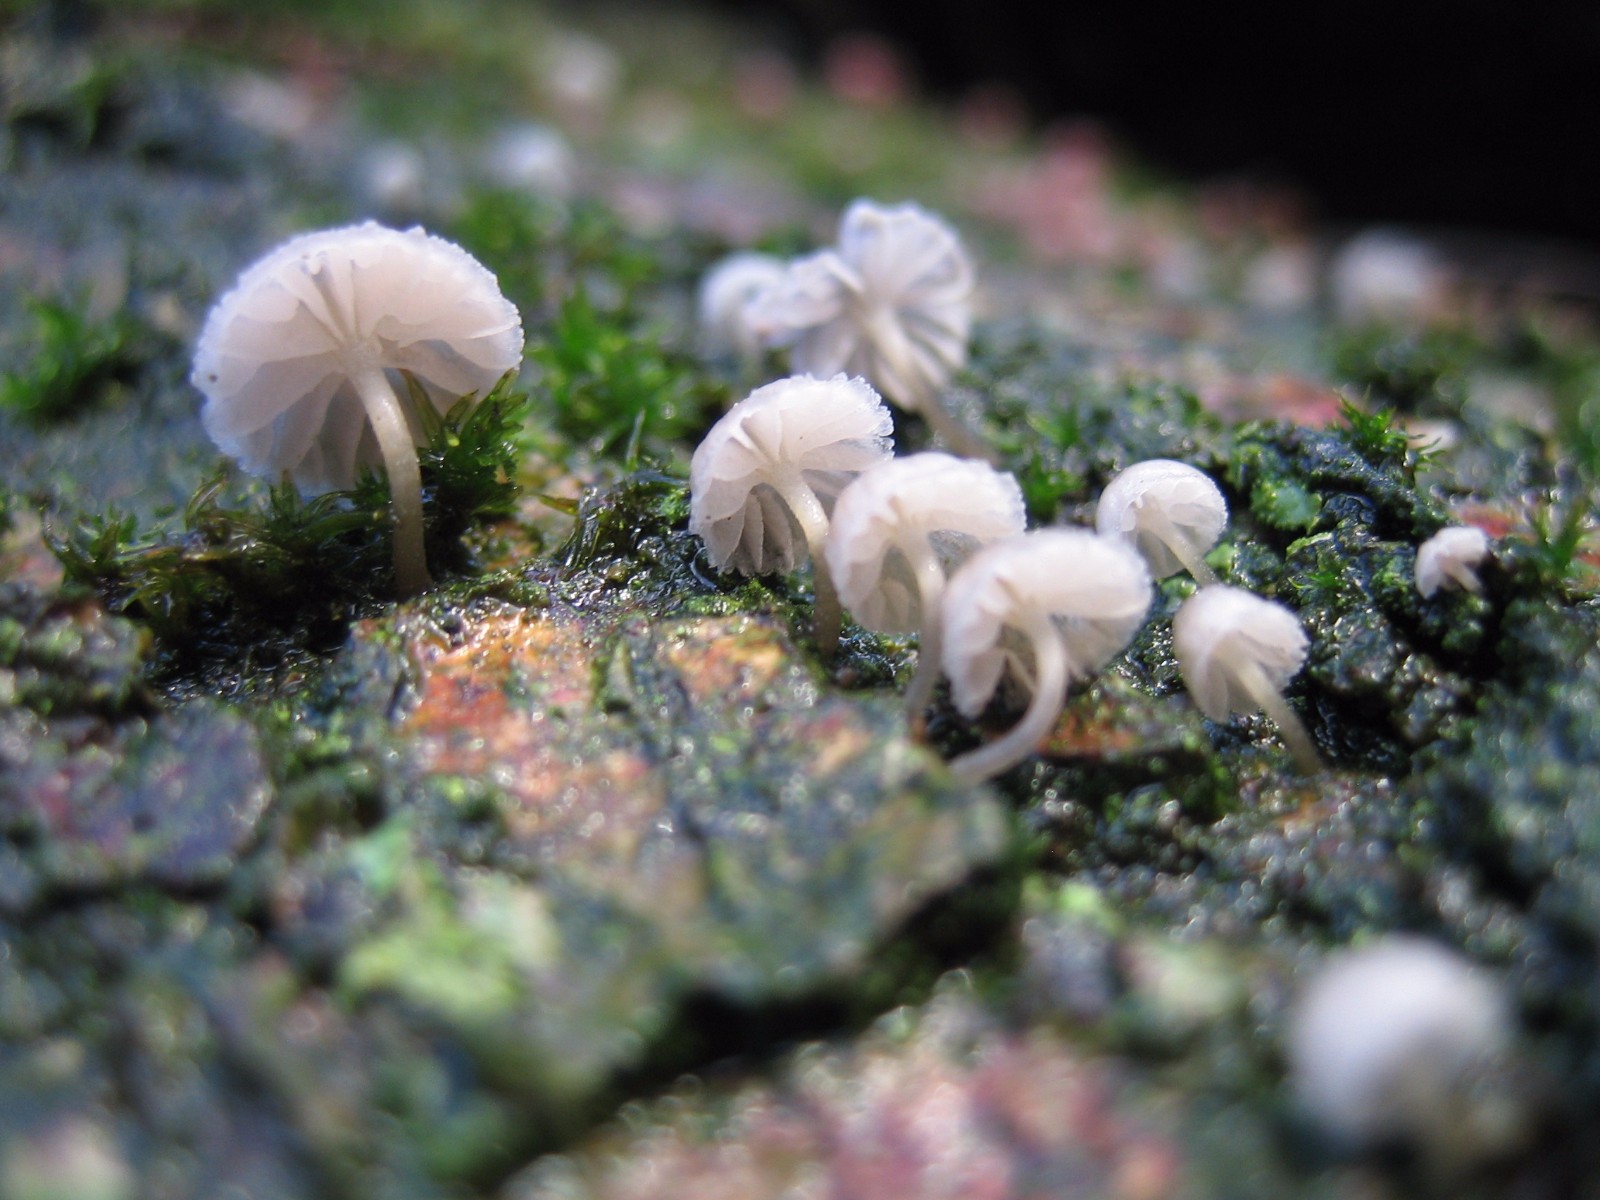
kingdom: Fungi
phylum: Basidiomycota
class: Agaricomycetes
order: Agaricales
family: Mycenaceae
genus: Mycena
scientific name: Mycena
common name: huesvamp
